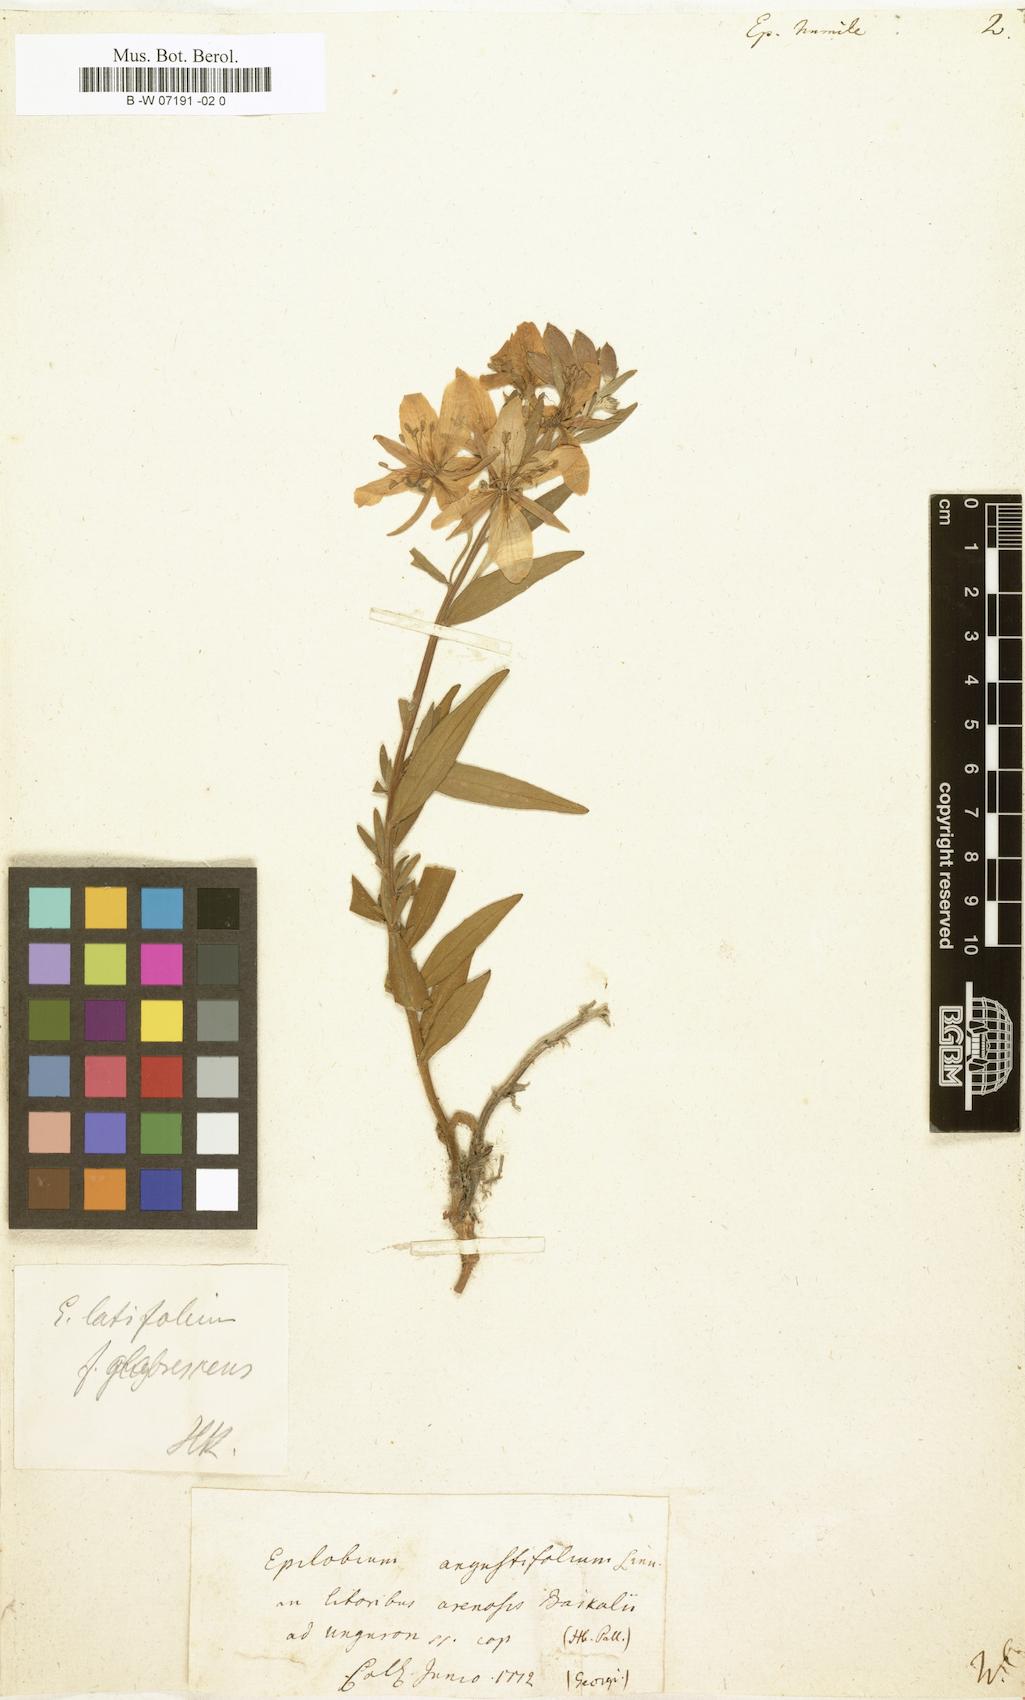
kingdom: Plantae
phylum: Tracheophyta
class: Magnoliopsida
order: Myrtales
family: Onagraceae
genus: Chamaenerion
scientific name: Chamaenerion latifolium
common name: Dwarf fireweed
